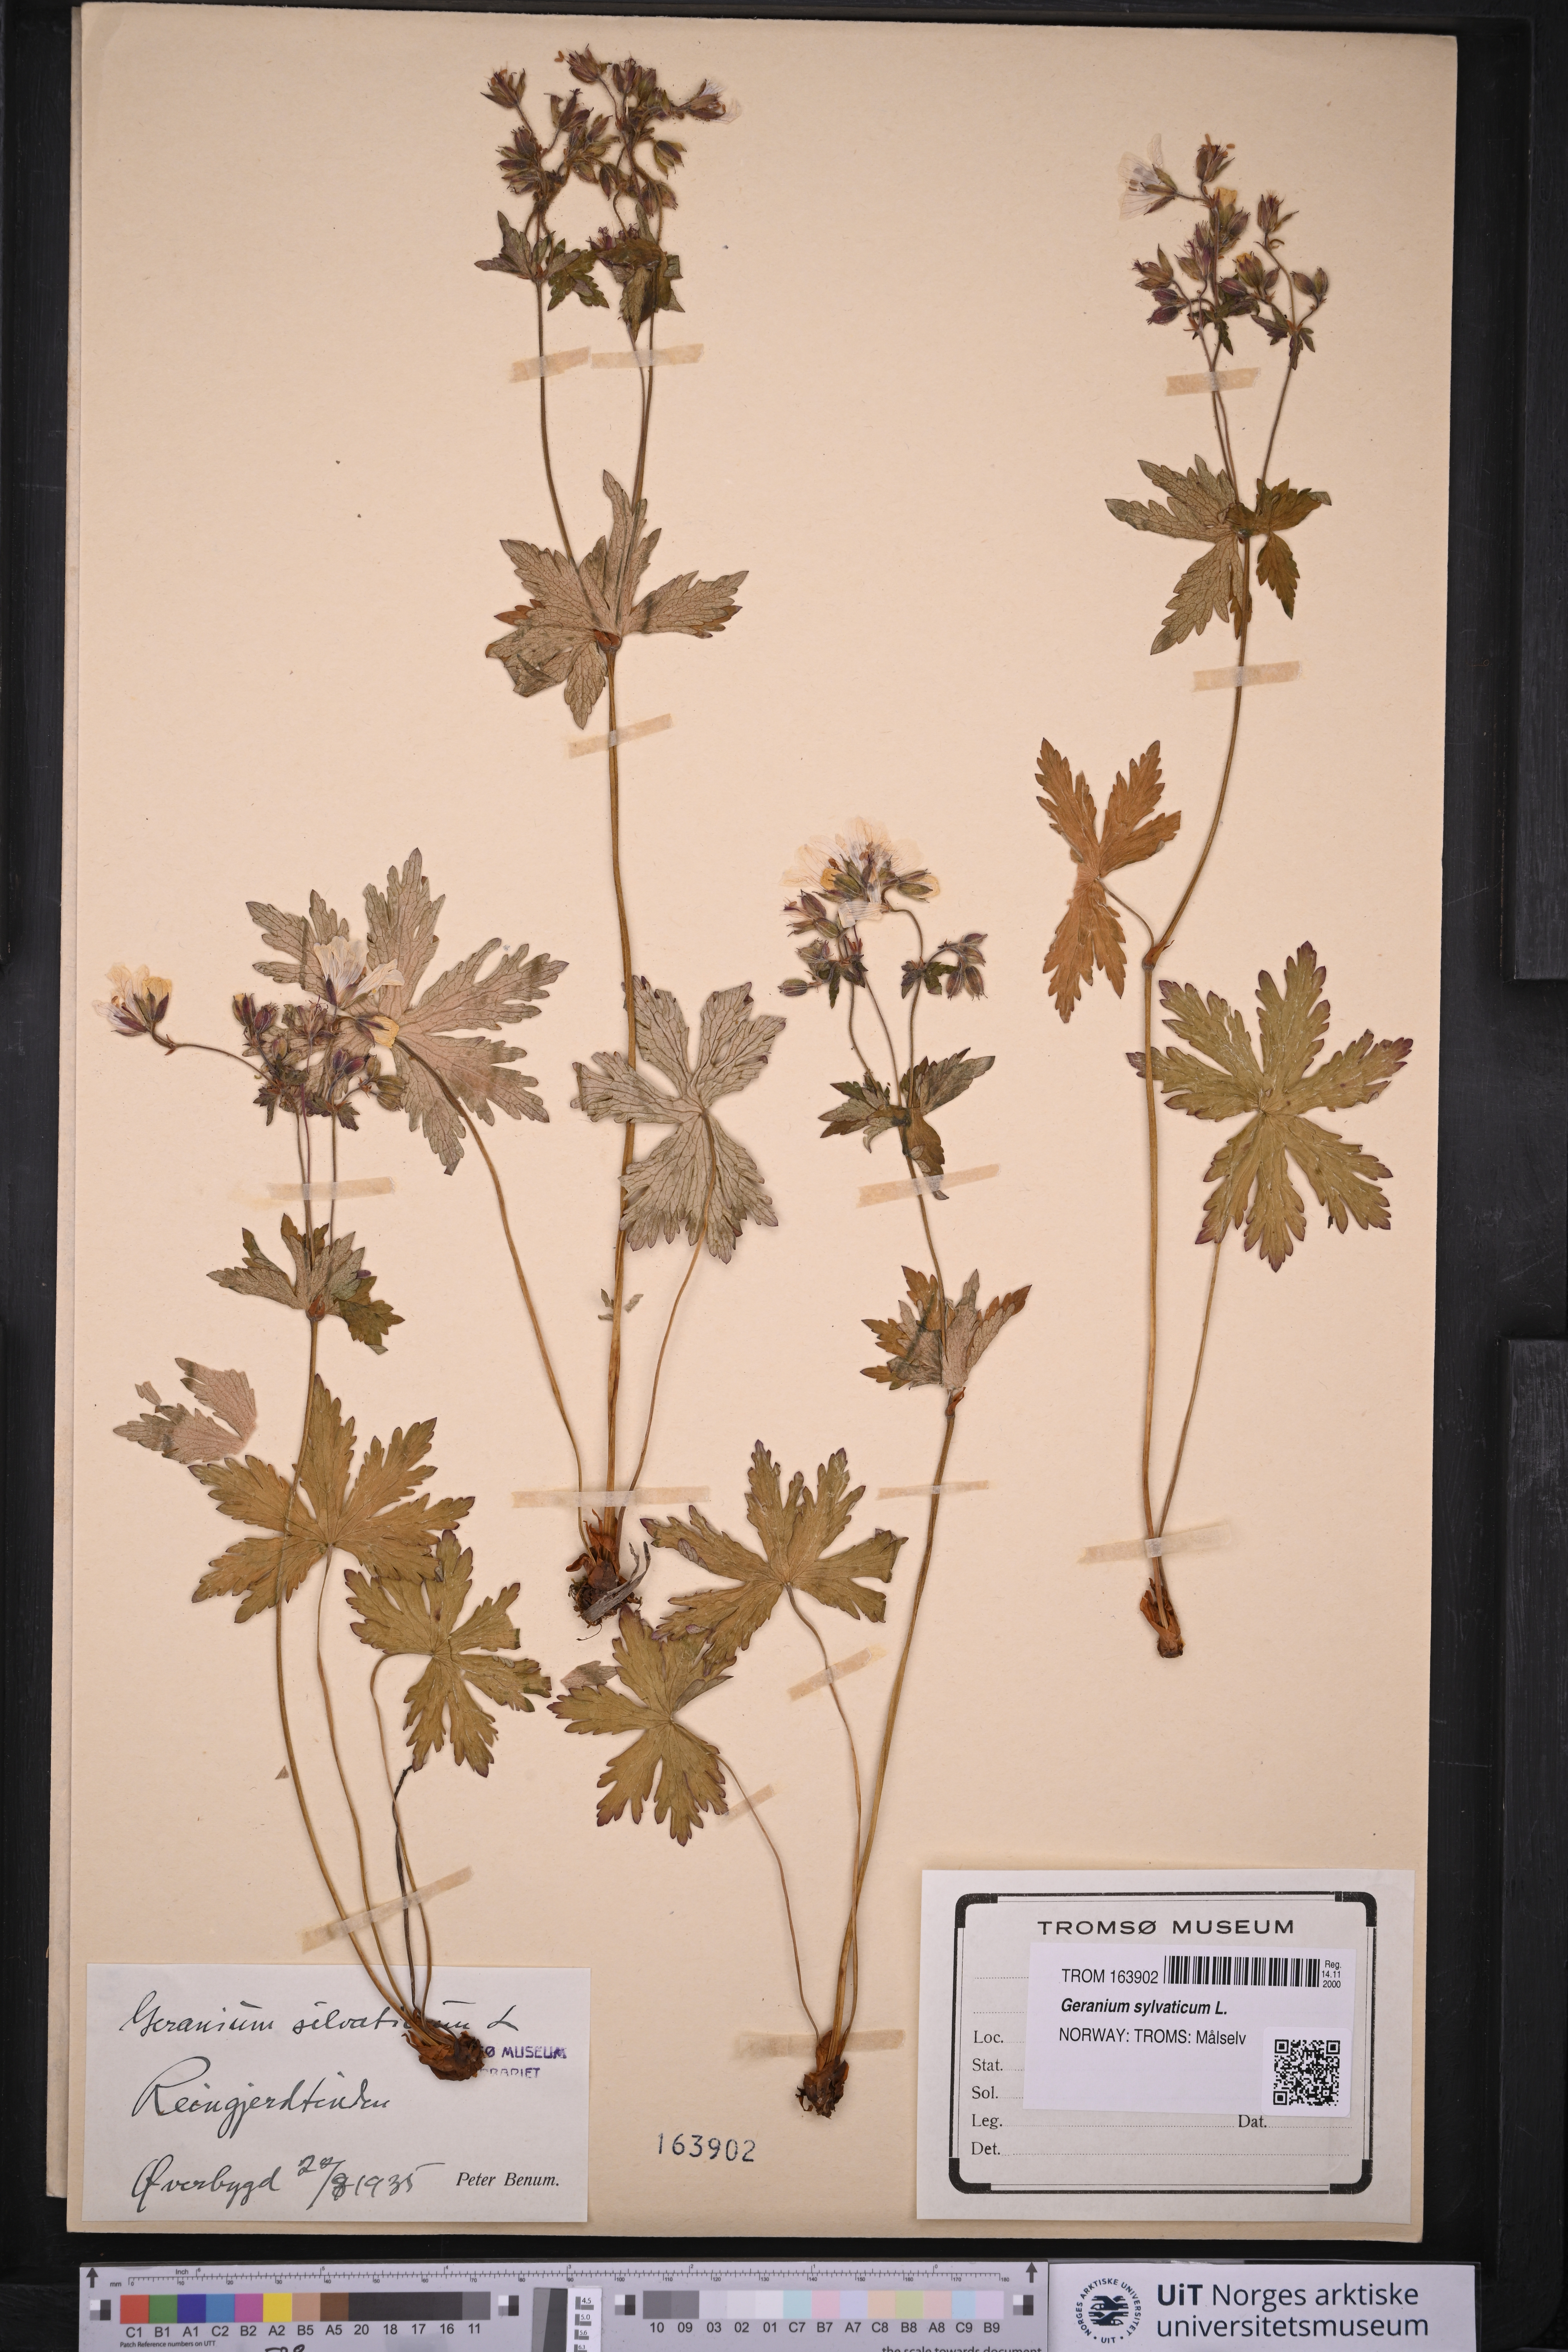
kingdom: Plantae
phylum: Tracheophyta
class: Magnoliopsida
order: Geraniales
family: Geraniaceae
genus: Geranium
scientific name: Geranium sylvaticum
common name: Wood crane's-bill
